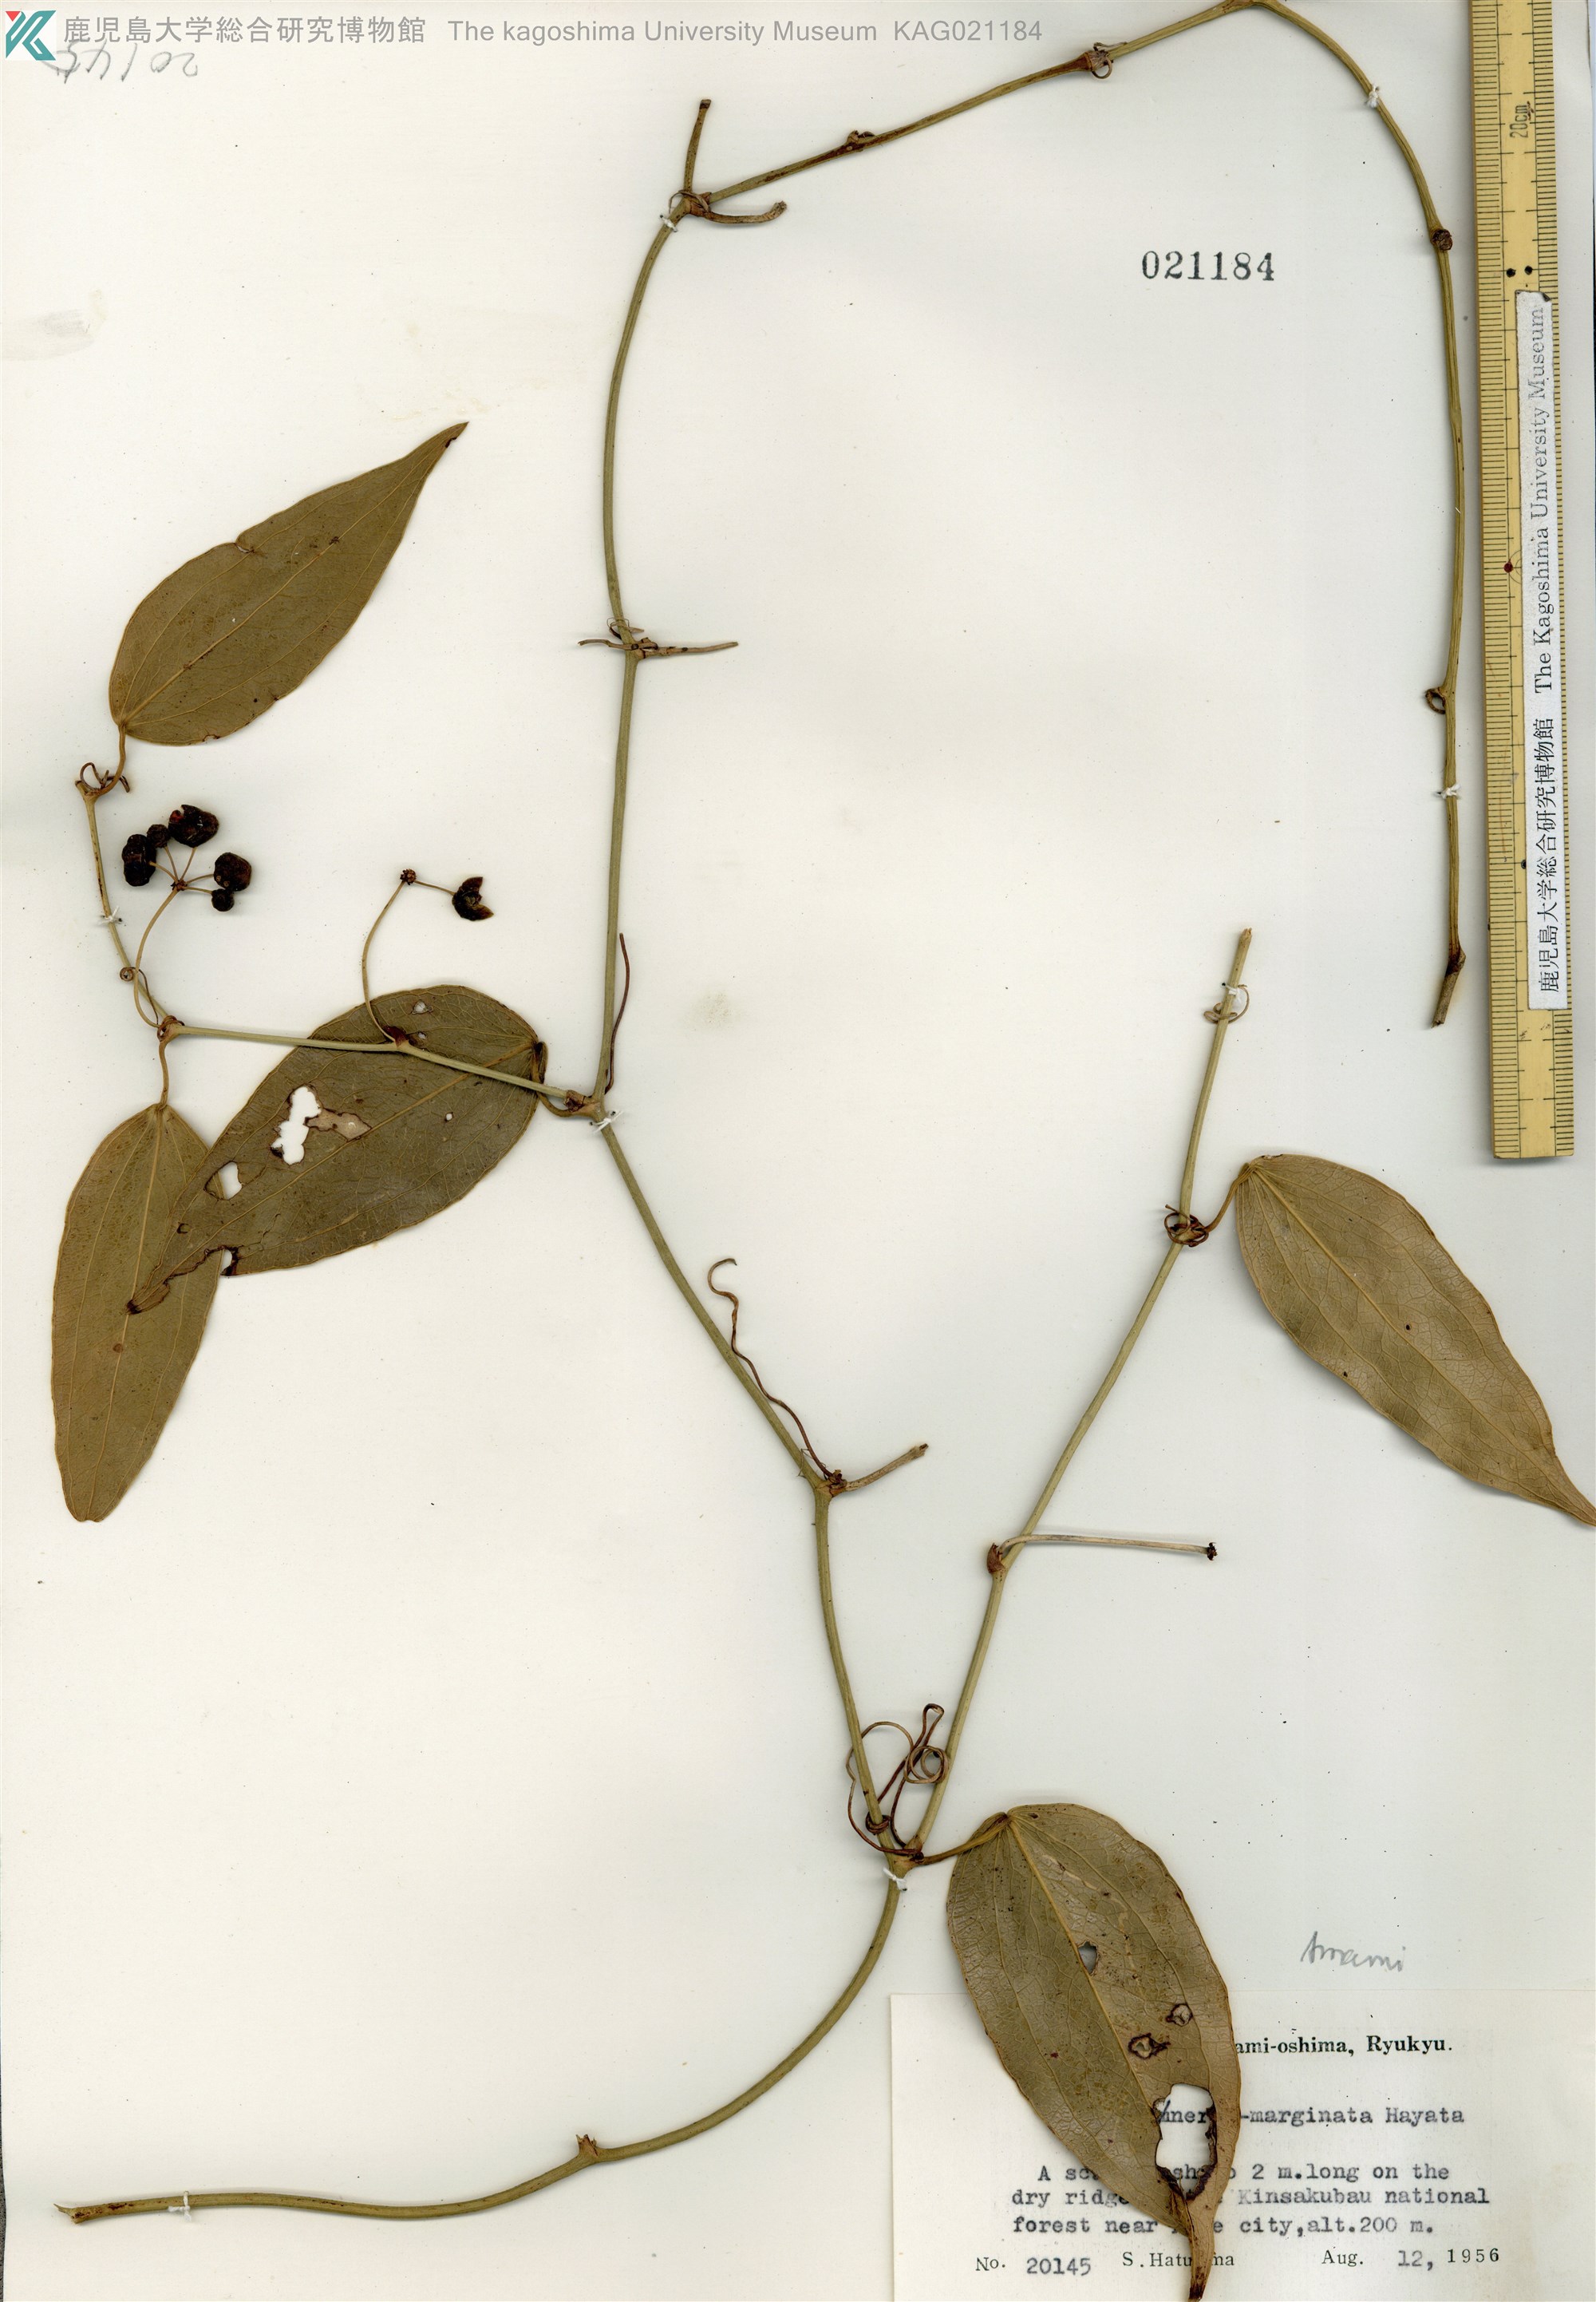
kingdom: Plantae
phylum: Tracheophyta
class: Liliopsida
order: Liliales
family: Smilacaceae
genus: Smilax
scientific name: Smilax nervomarginata
